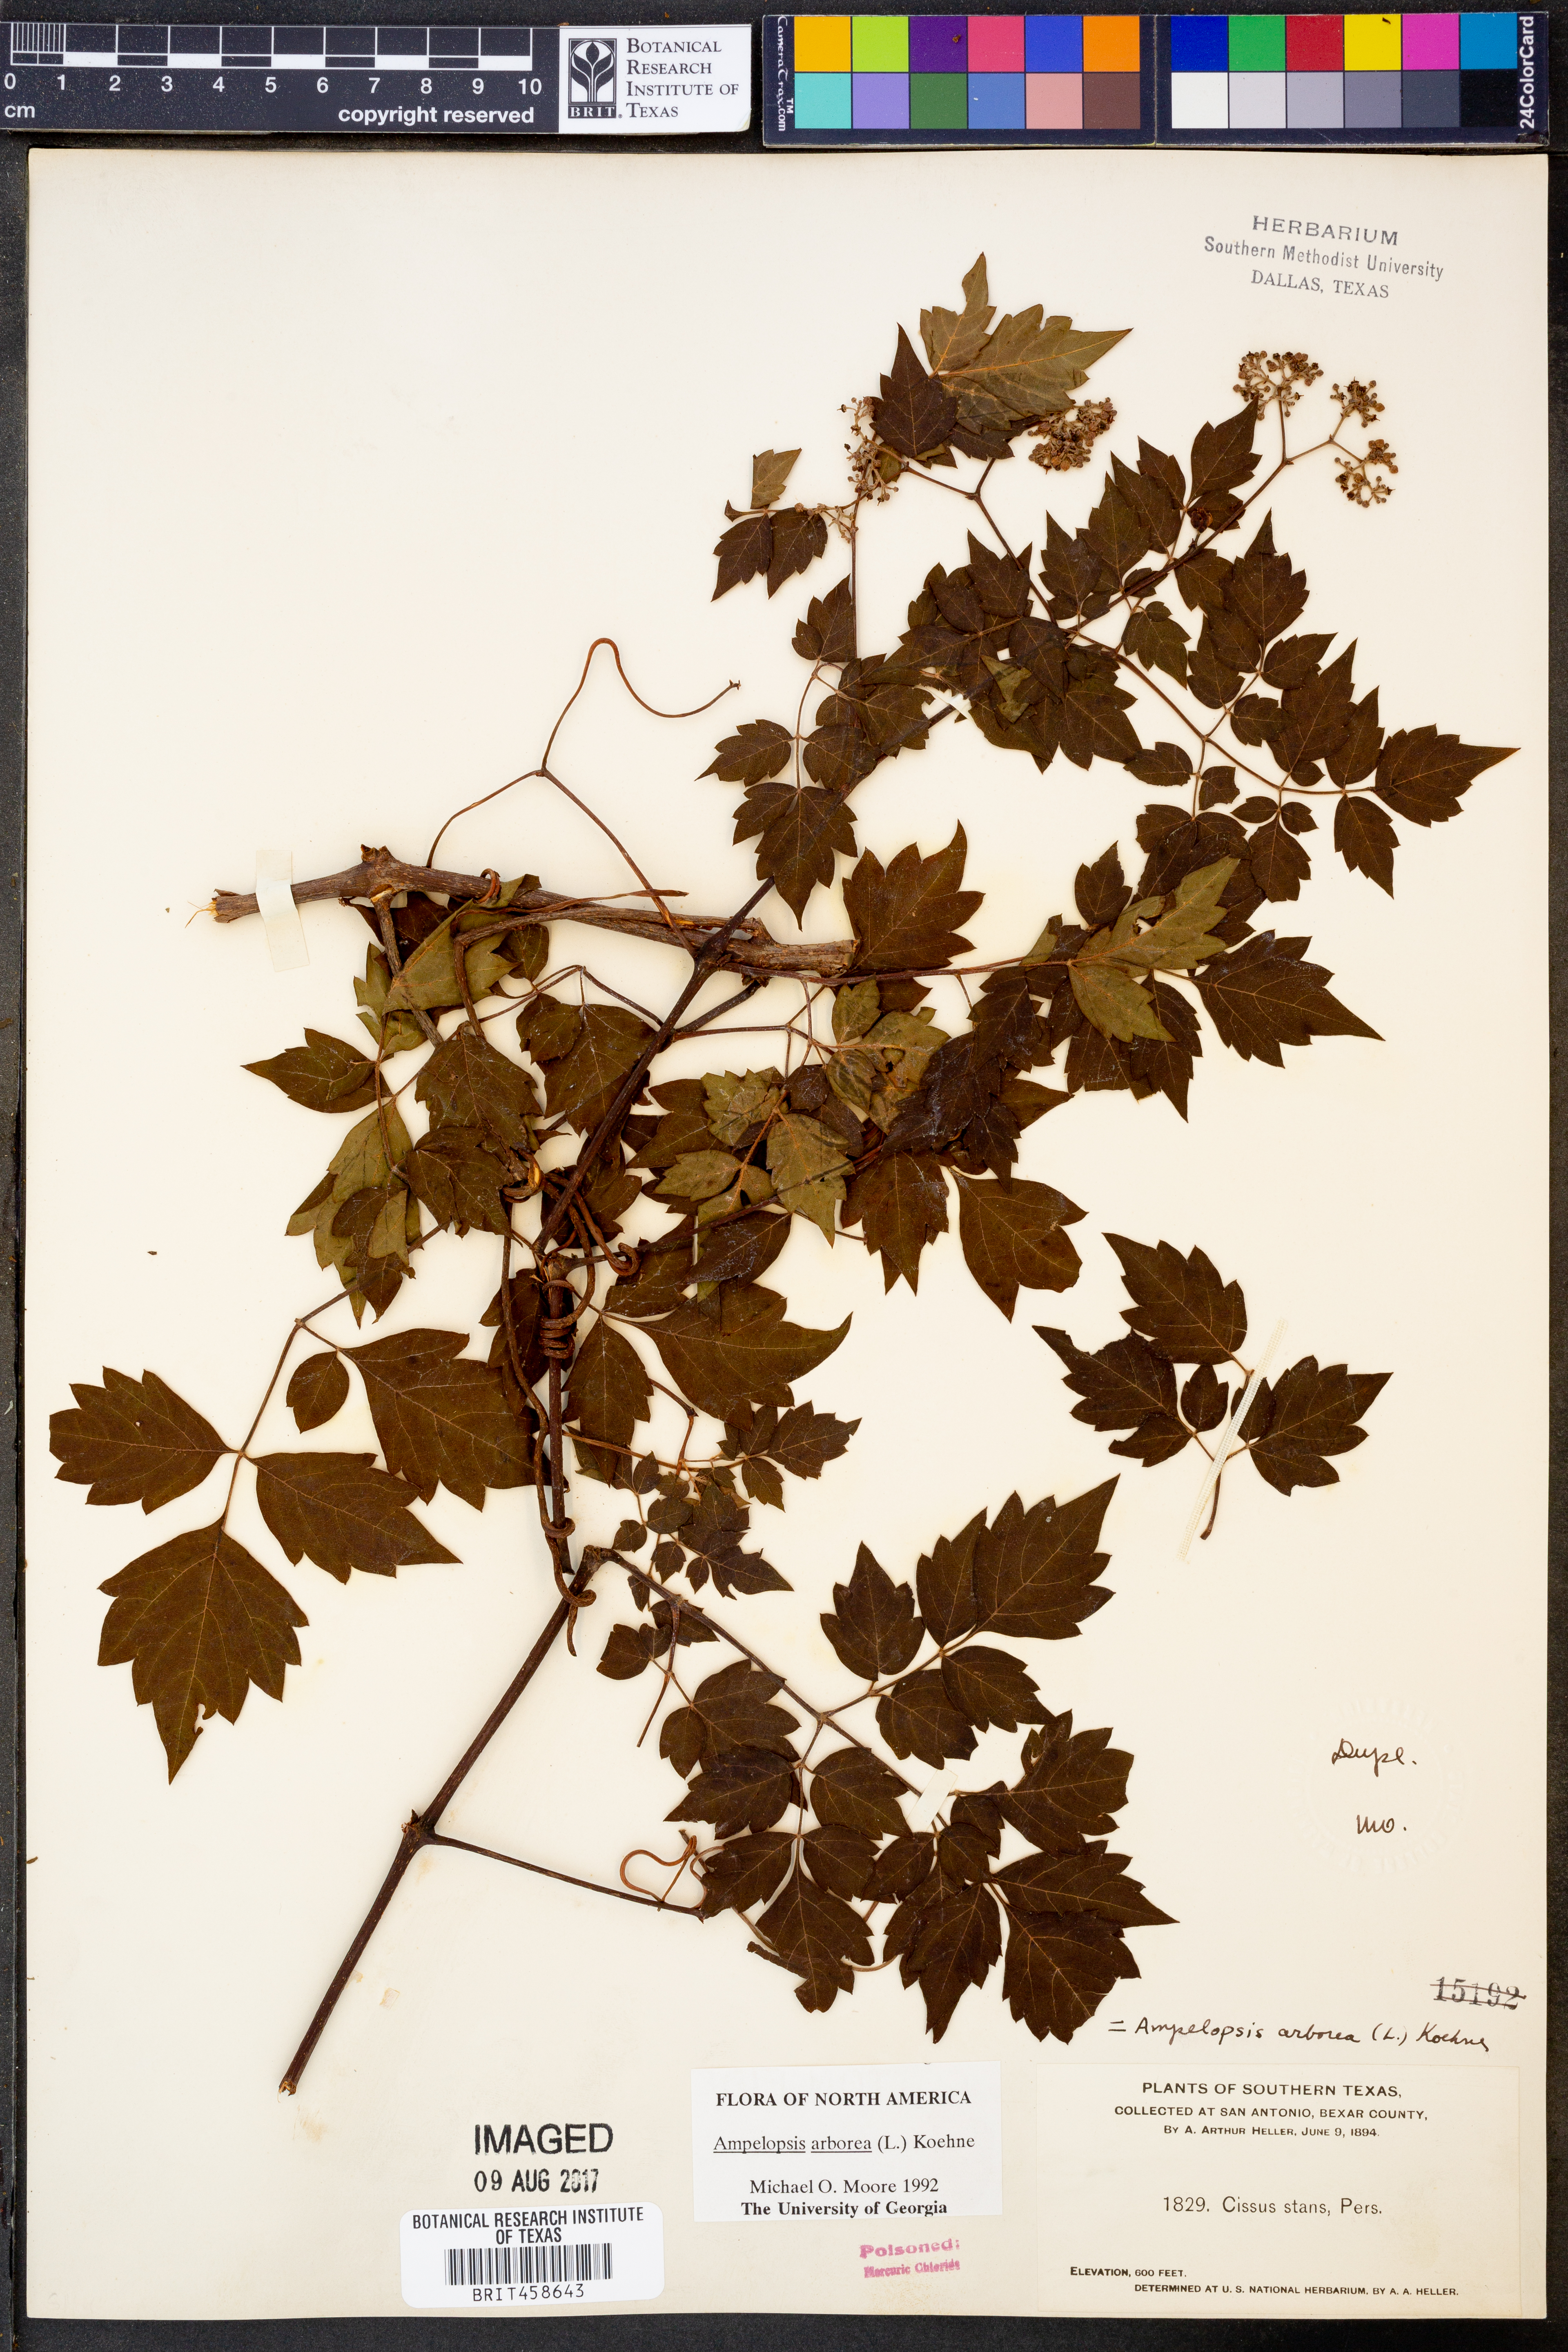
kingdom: Plantae
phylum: Tracheophyta
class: Magnoliopsida
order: Vitales
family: Vitaceae
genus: Nekemias
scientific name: Nekemias arborea
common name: Peppervine
